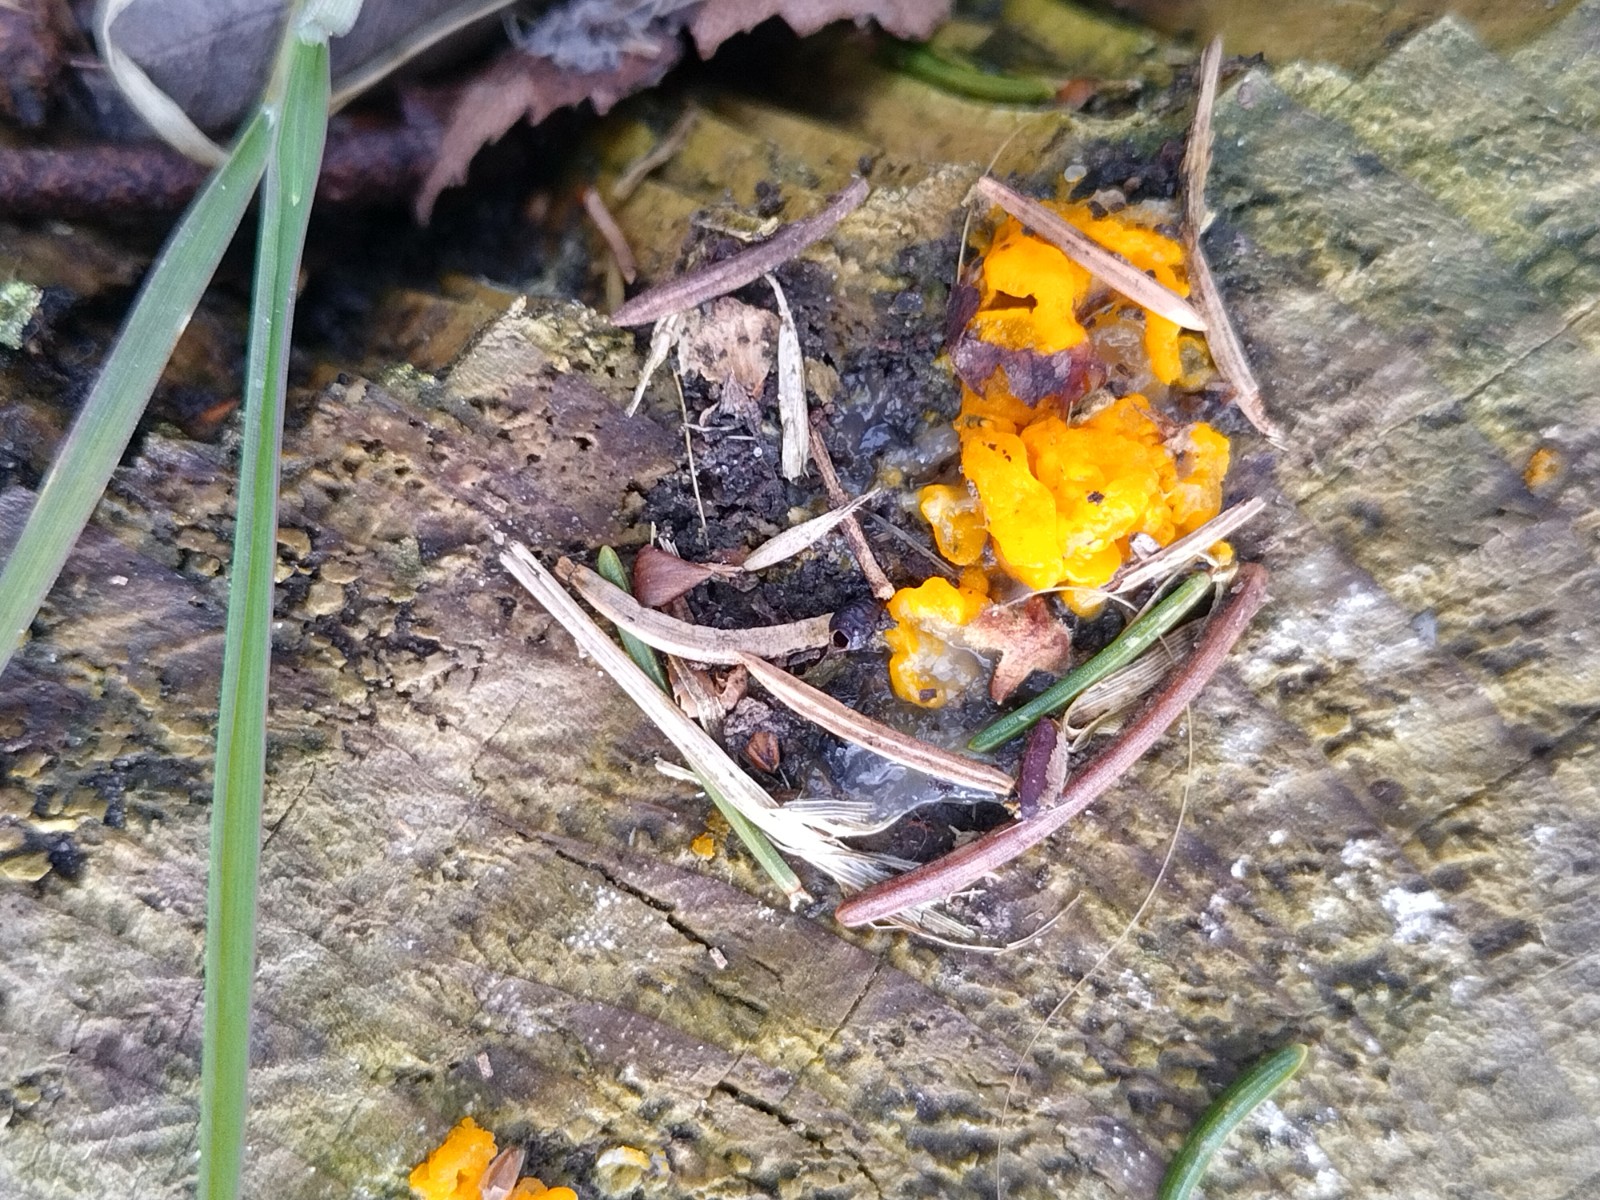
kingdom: Fungi
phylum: Basidiomycota
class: Tremellomycetes
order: Tremellales
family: Tremellaceae
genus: Tremella
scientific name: Tremella mesenterica
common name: gul bævresvamp
